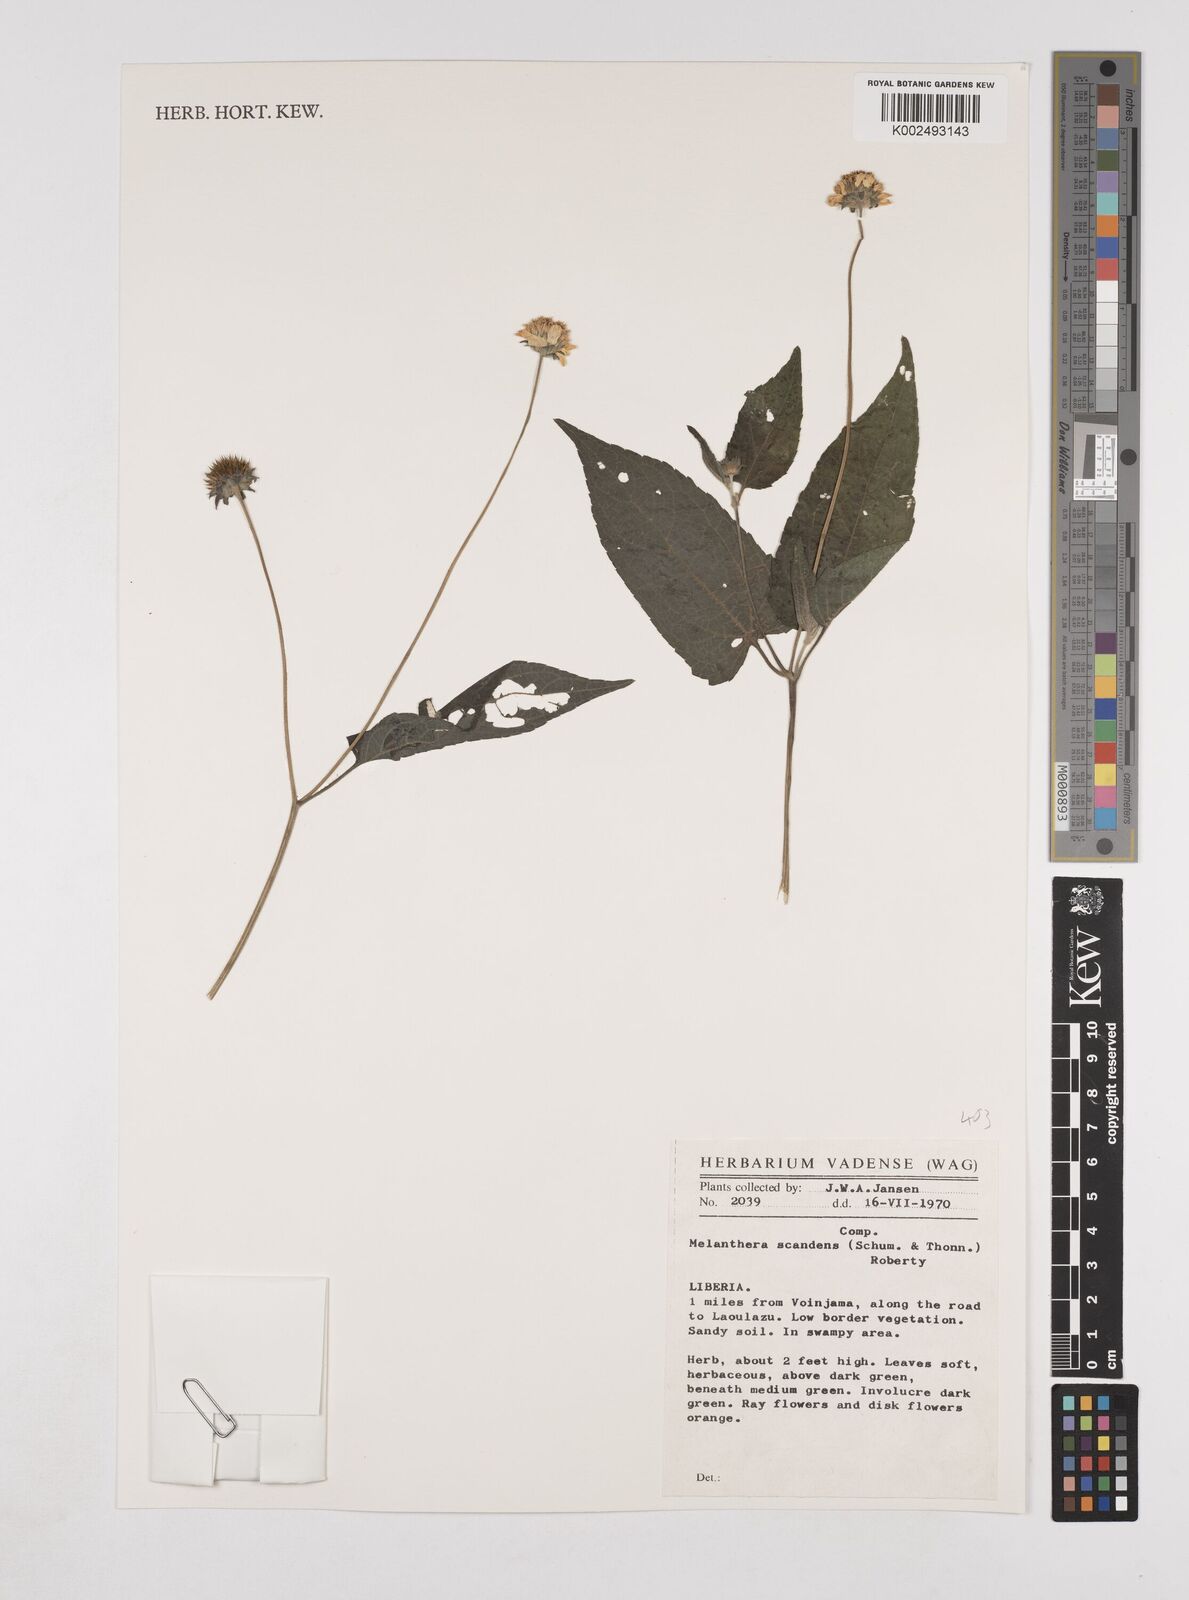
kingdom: Plantae
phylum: Tracheophyta
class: Magnoliopsida
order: Asterales
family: Asteraceae
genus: Lipotriche
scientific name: Lipotriche scandens
